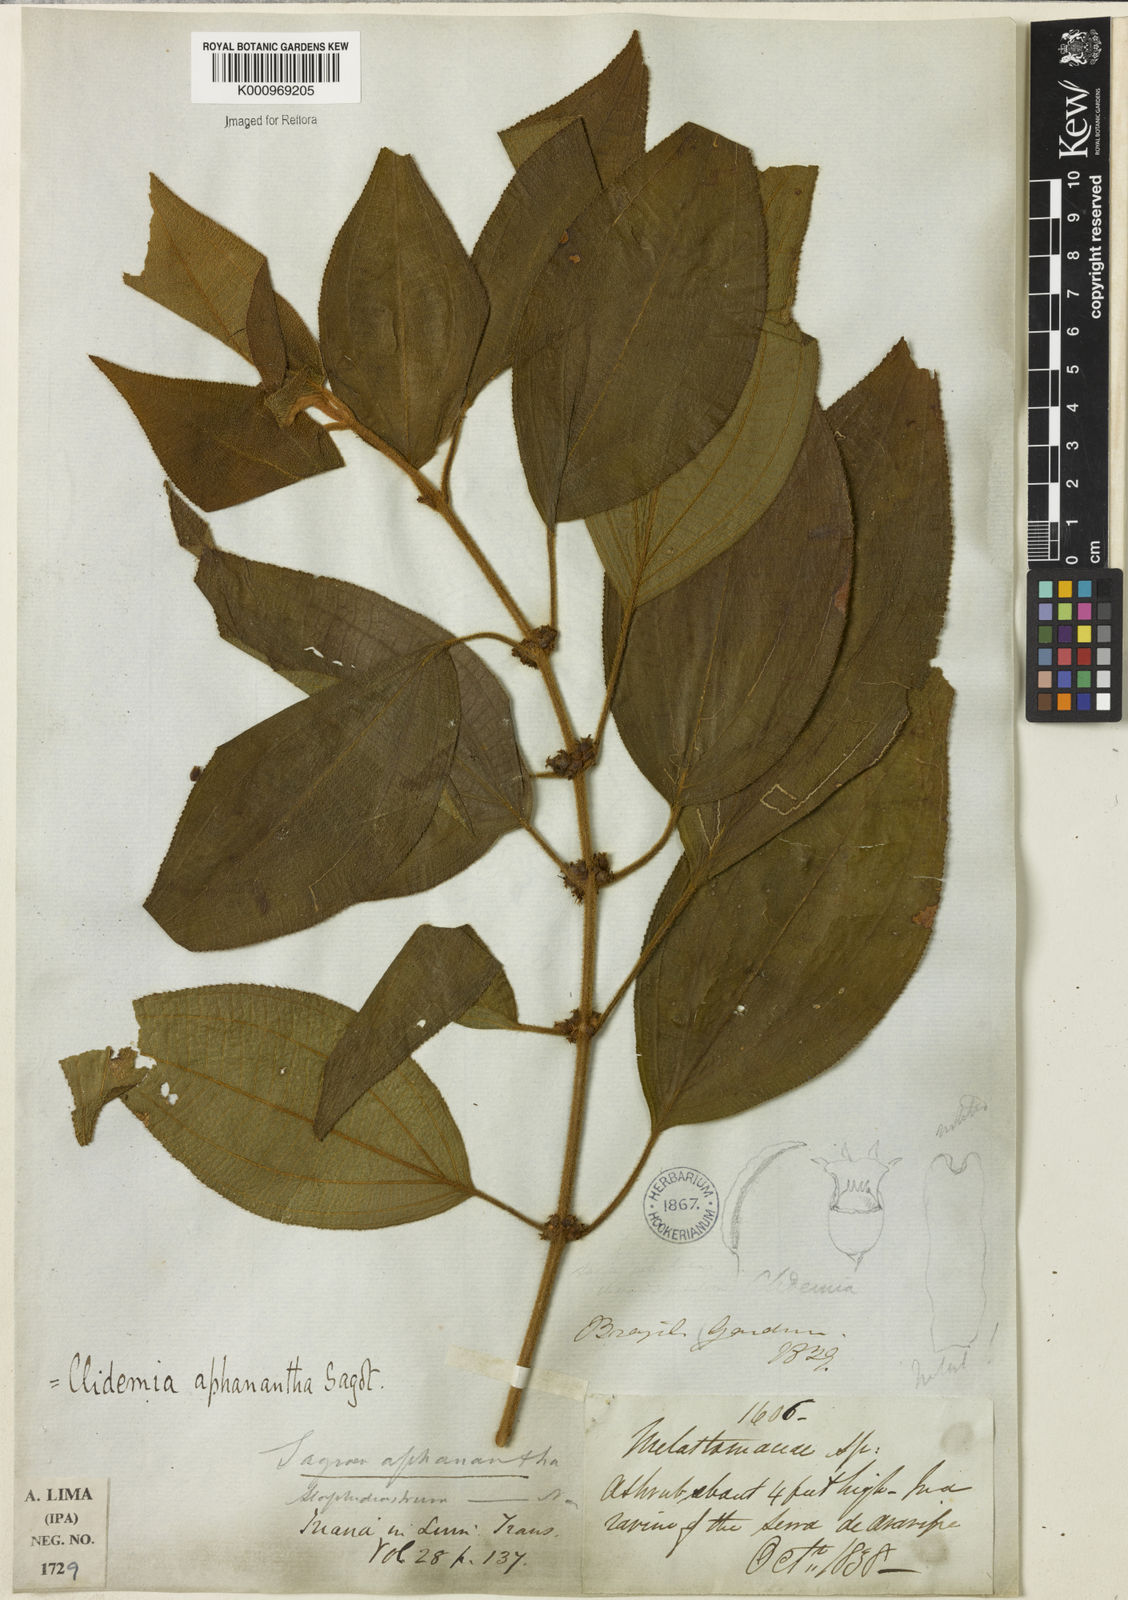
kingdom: Plantae
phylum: Tracheophyta
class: Magnoliopsida
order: Myrtales
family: Melastomataceae
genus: Miconia
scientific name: Miconia aphanantha
